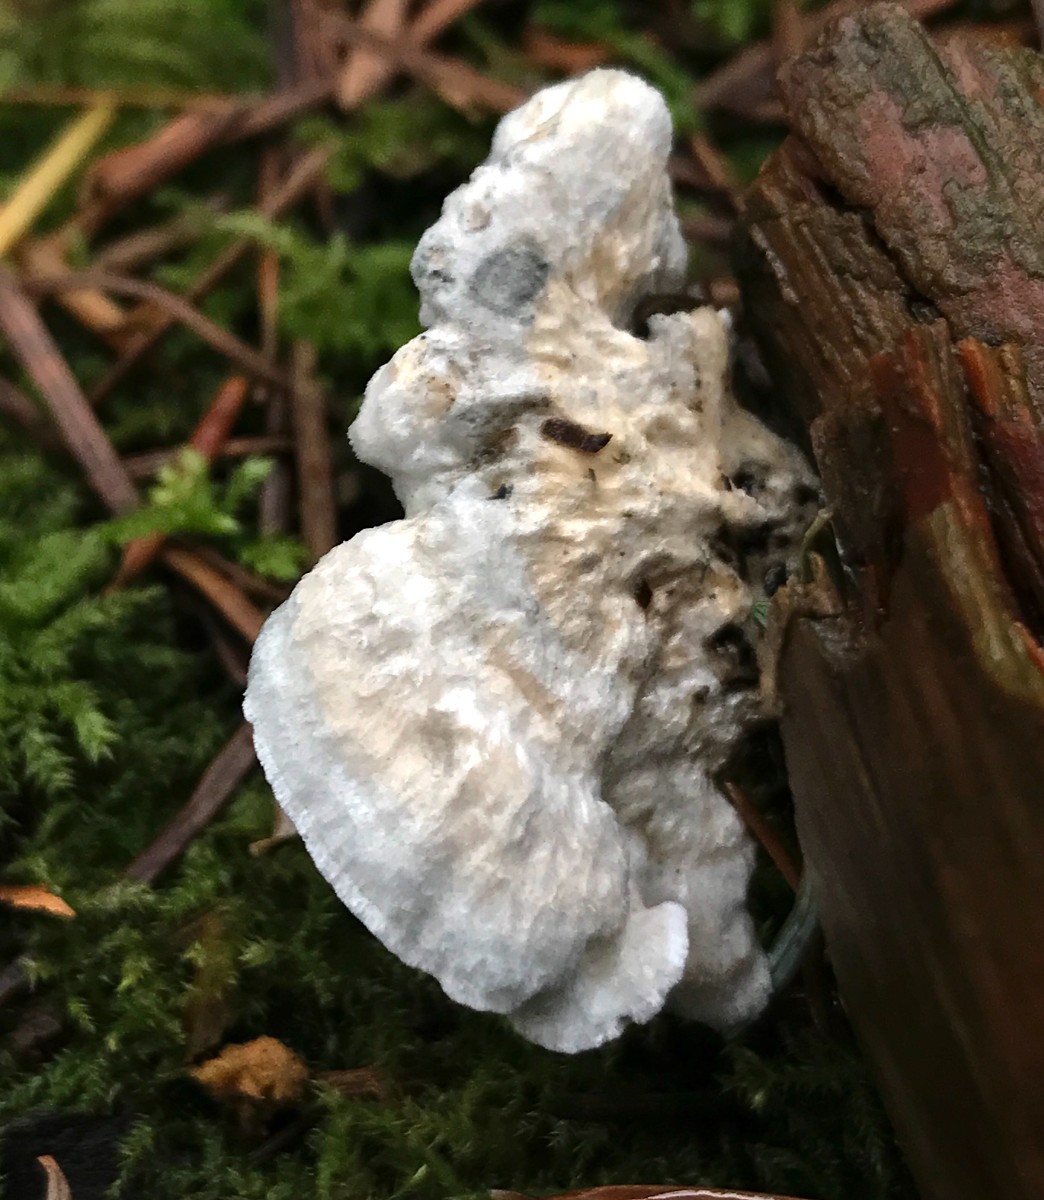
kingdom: Fungi
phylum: Basidiomycota
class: Agaricomycetes
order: Polyporales
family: Polyporaceae
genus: Cyanosporus
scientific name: Cyanosporus alni
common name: blegblå kødporesvamp
